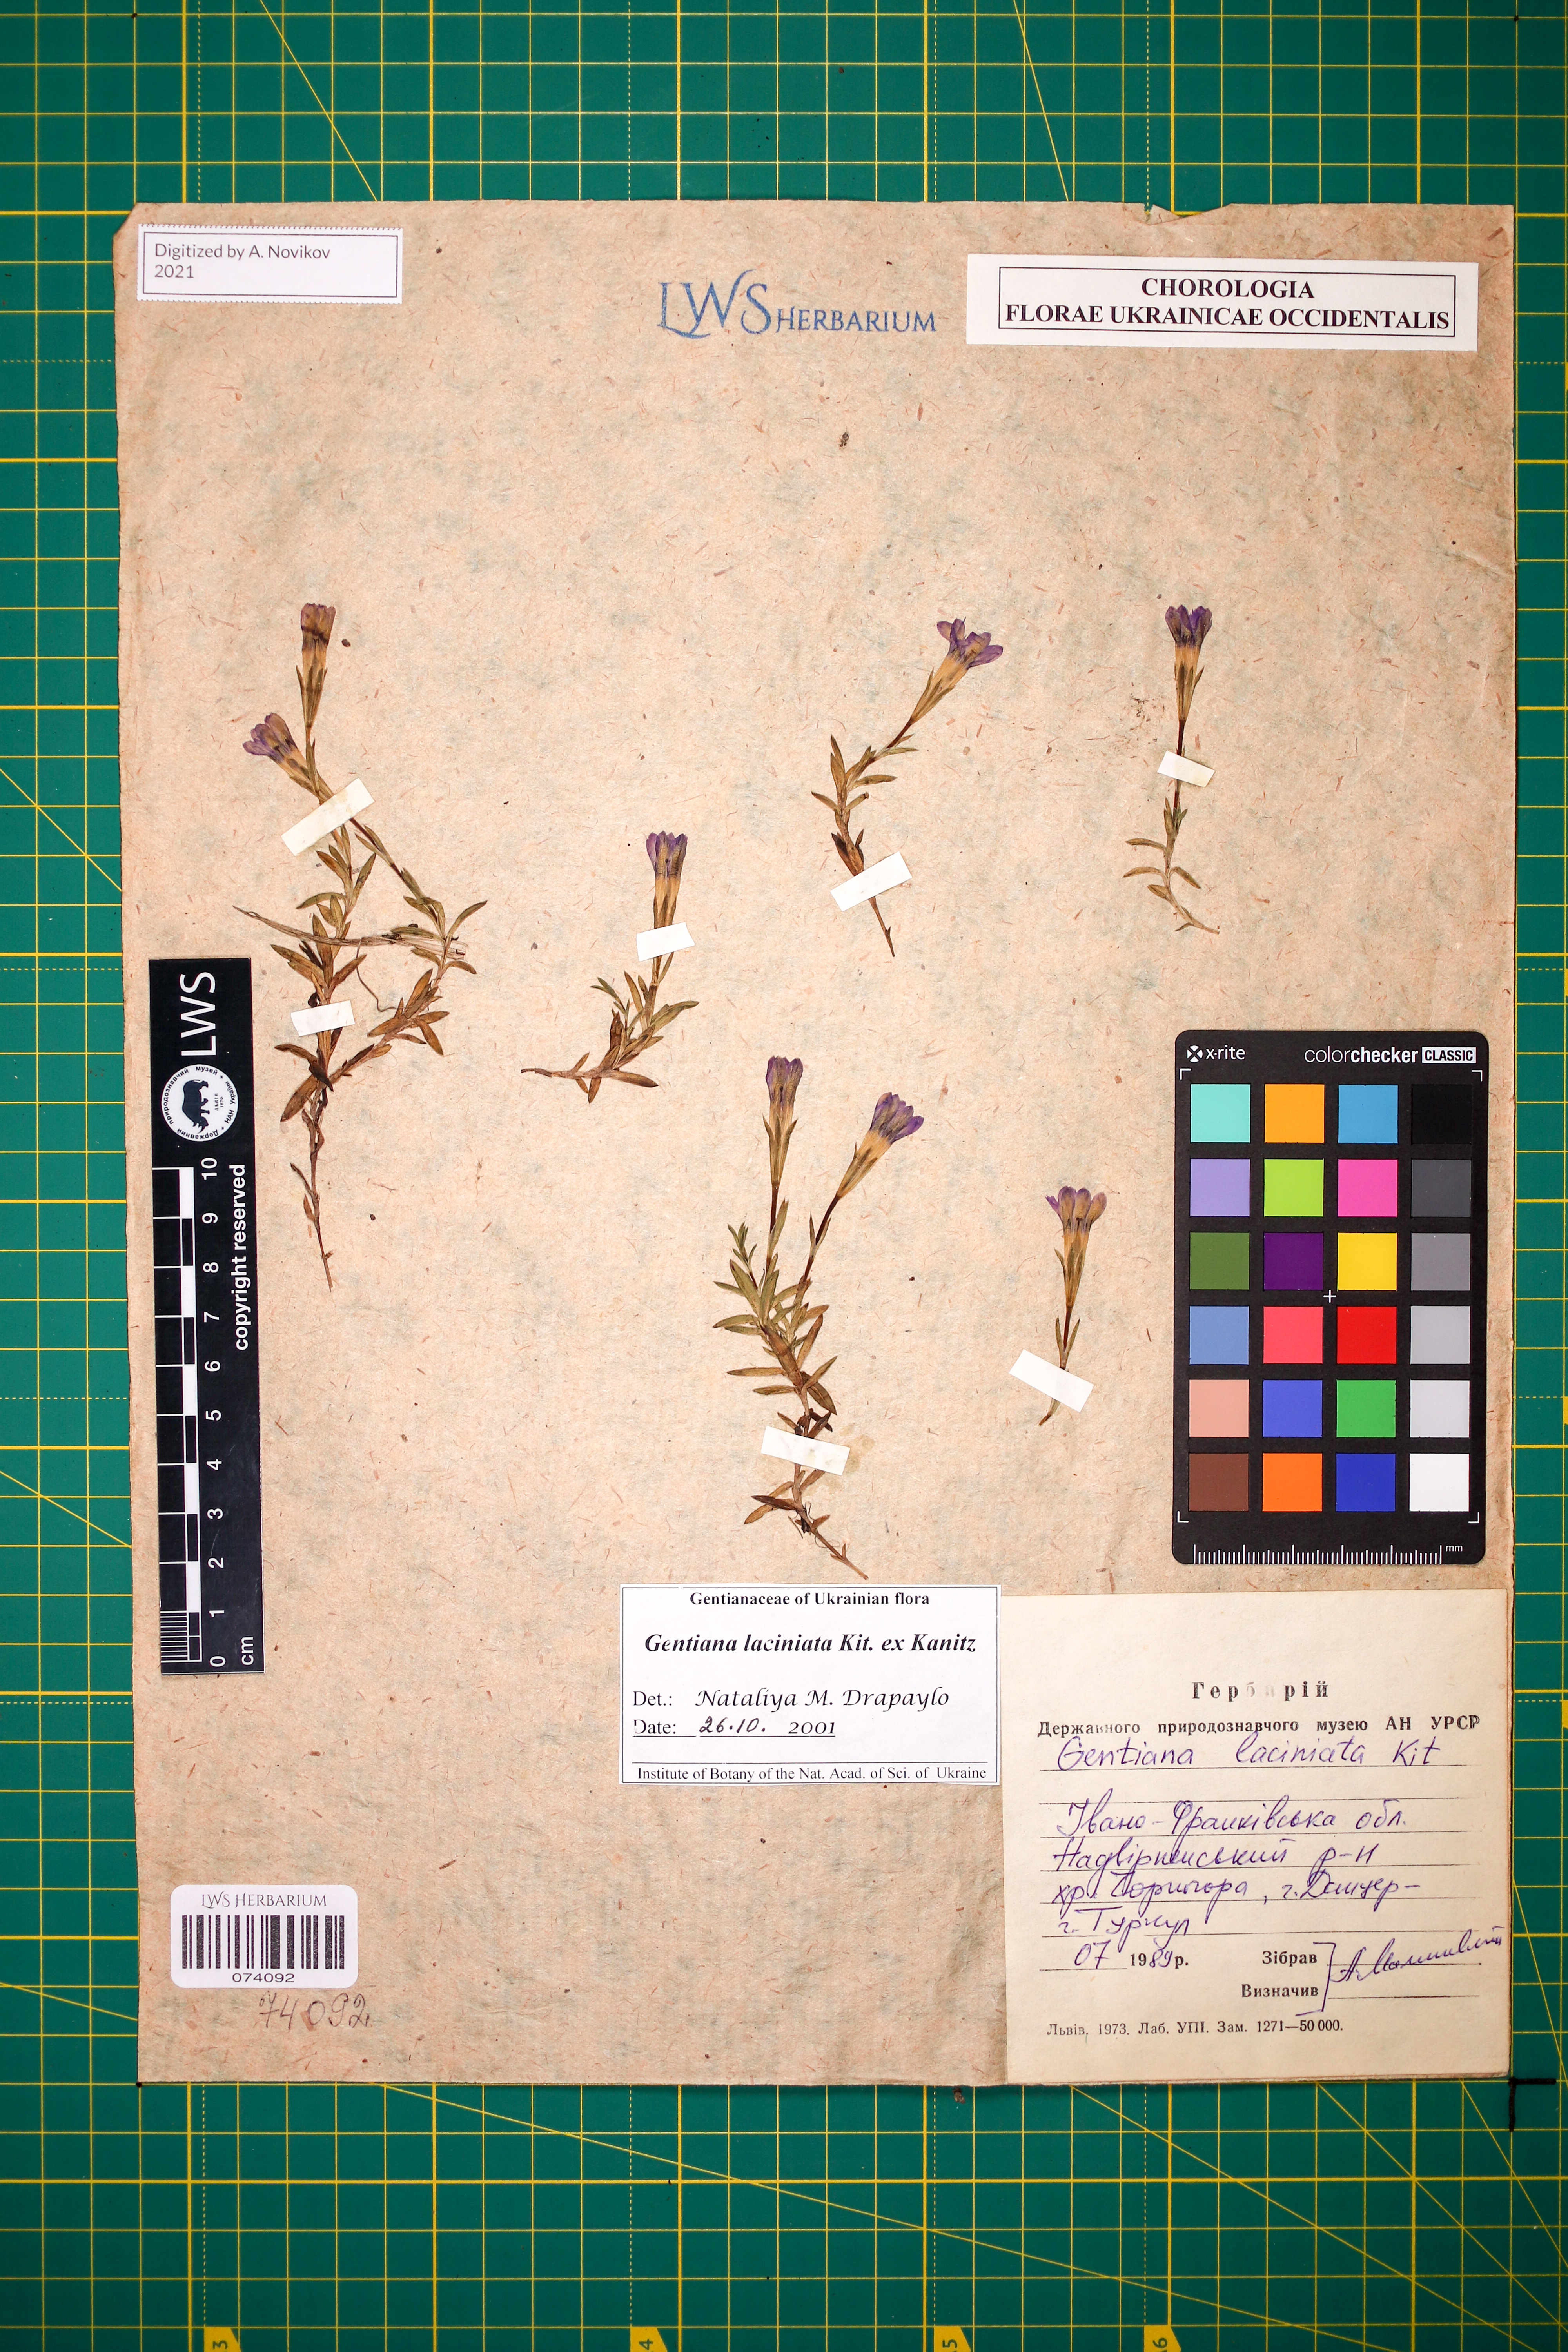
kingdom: Plantae
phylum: Tracheophyta
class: Magnoliopsida
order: Gentianales
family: Gentianaceae
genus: Gentiana
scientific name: Gentiana laciniata
